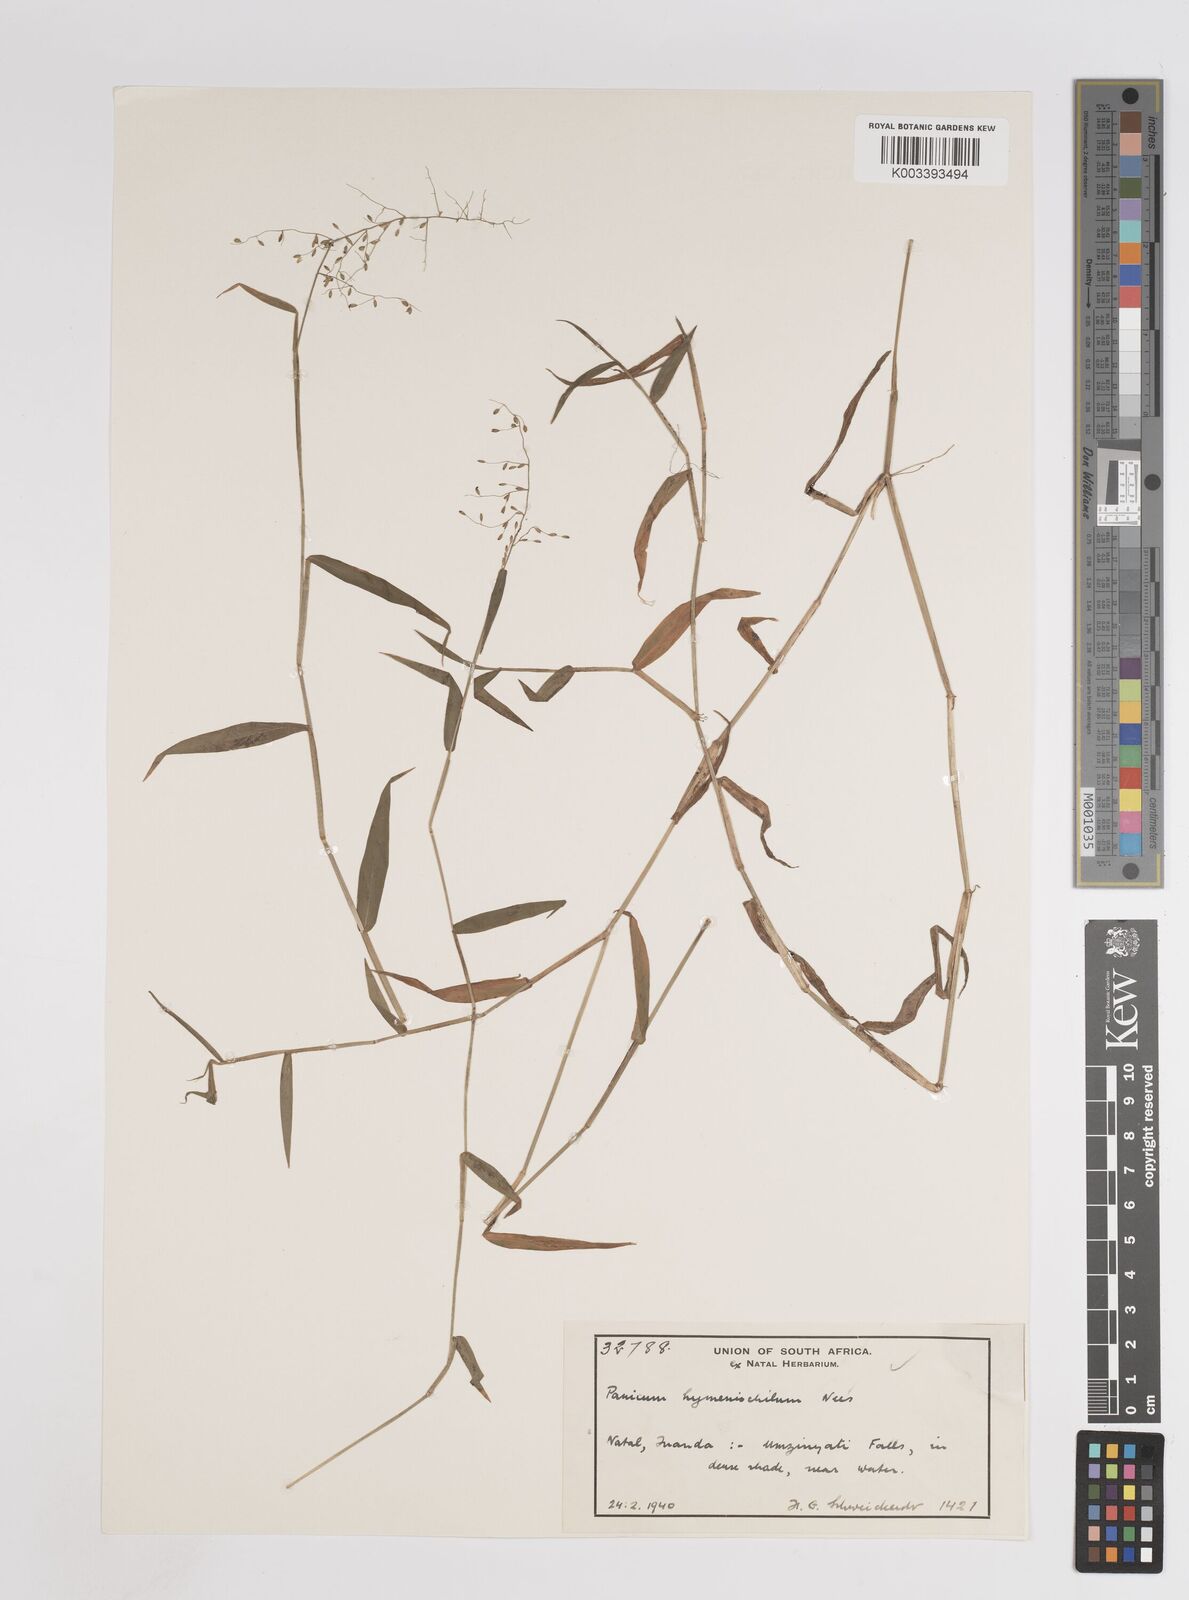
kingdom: Plantae
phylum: Tracheophyta
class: Liliopsida
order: Poales
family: Poaceae
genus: Adenochloa
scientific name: Adenochloa hymeniochila
